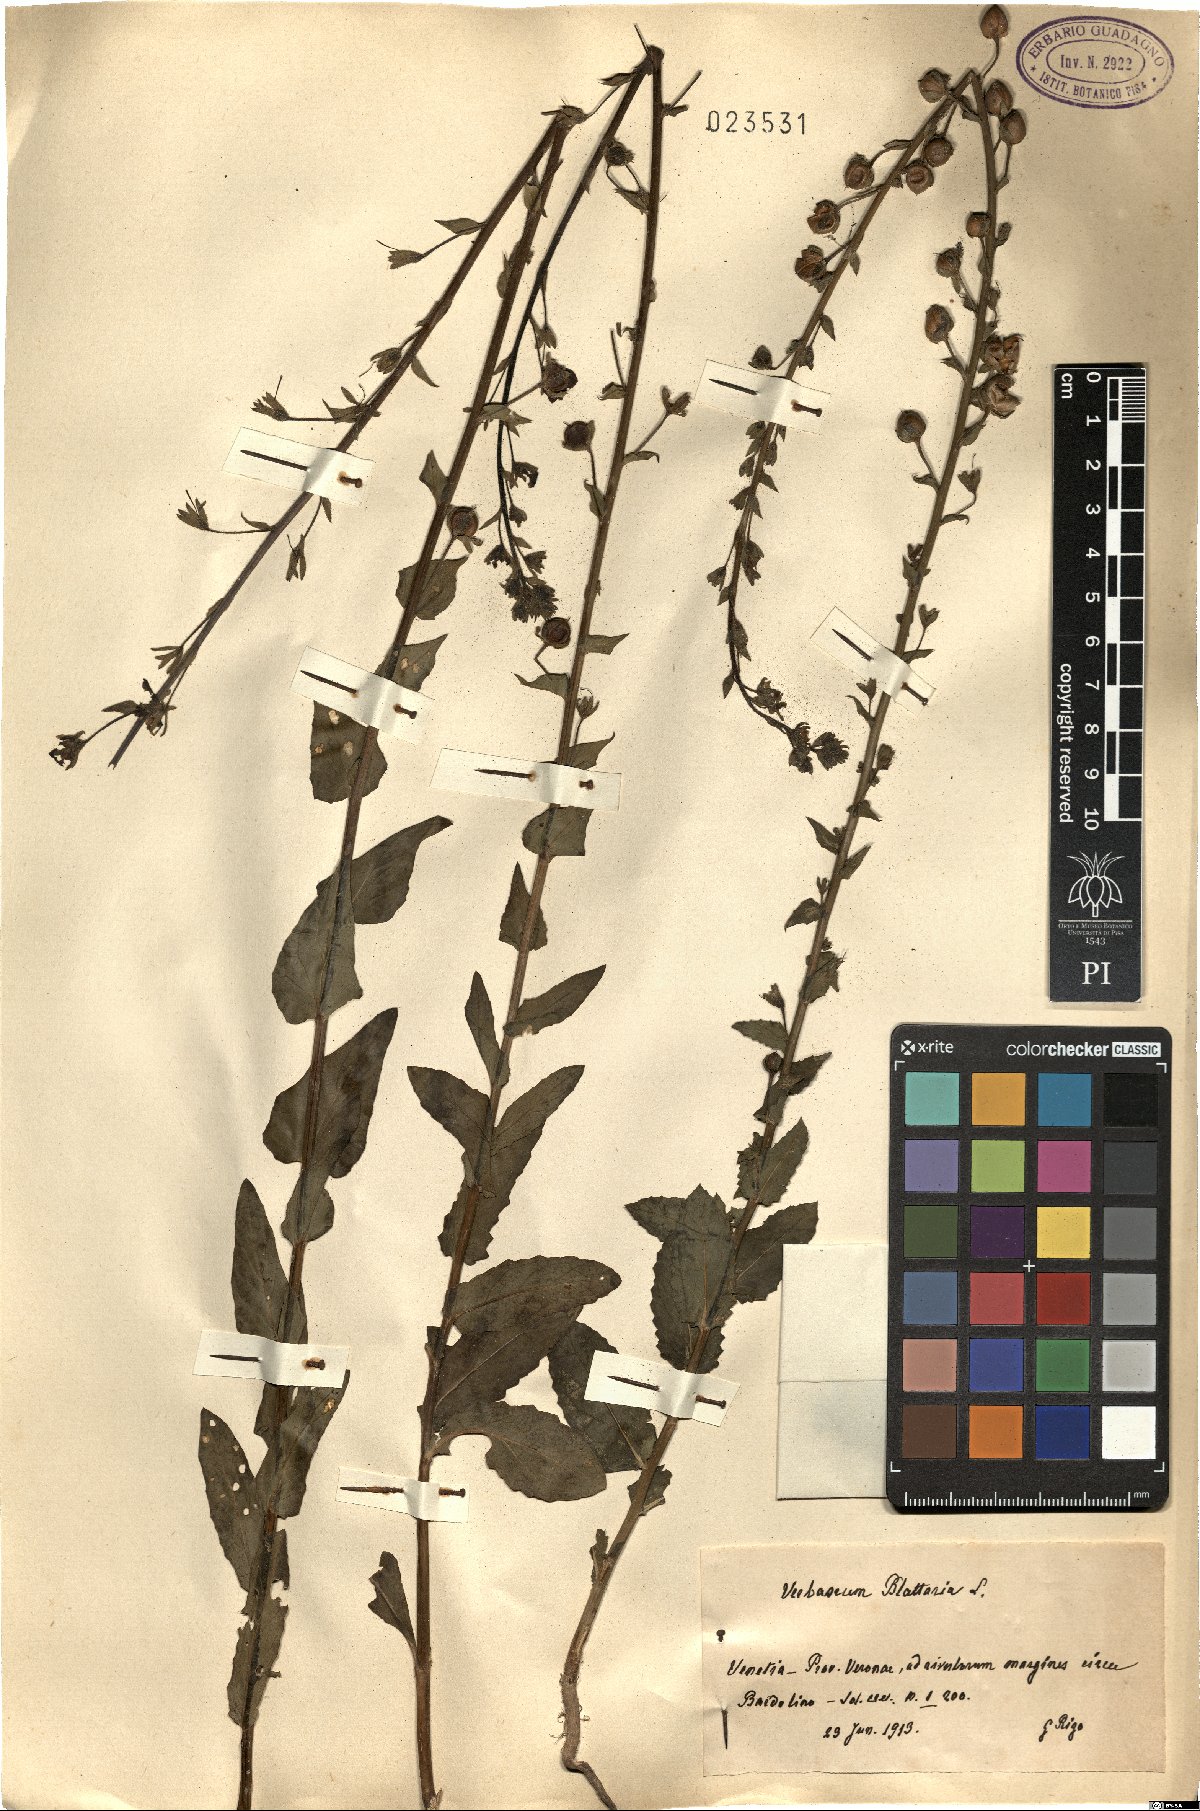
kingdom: Plantae
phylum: Tracheophyta
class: Magnoliopsida
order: Lamiales
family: Scrophulariaceae
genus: Verbascum
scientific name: Verbascum blattaria
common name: Moth mullein
